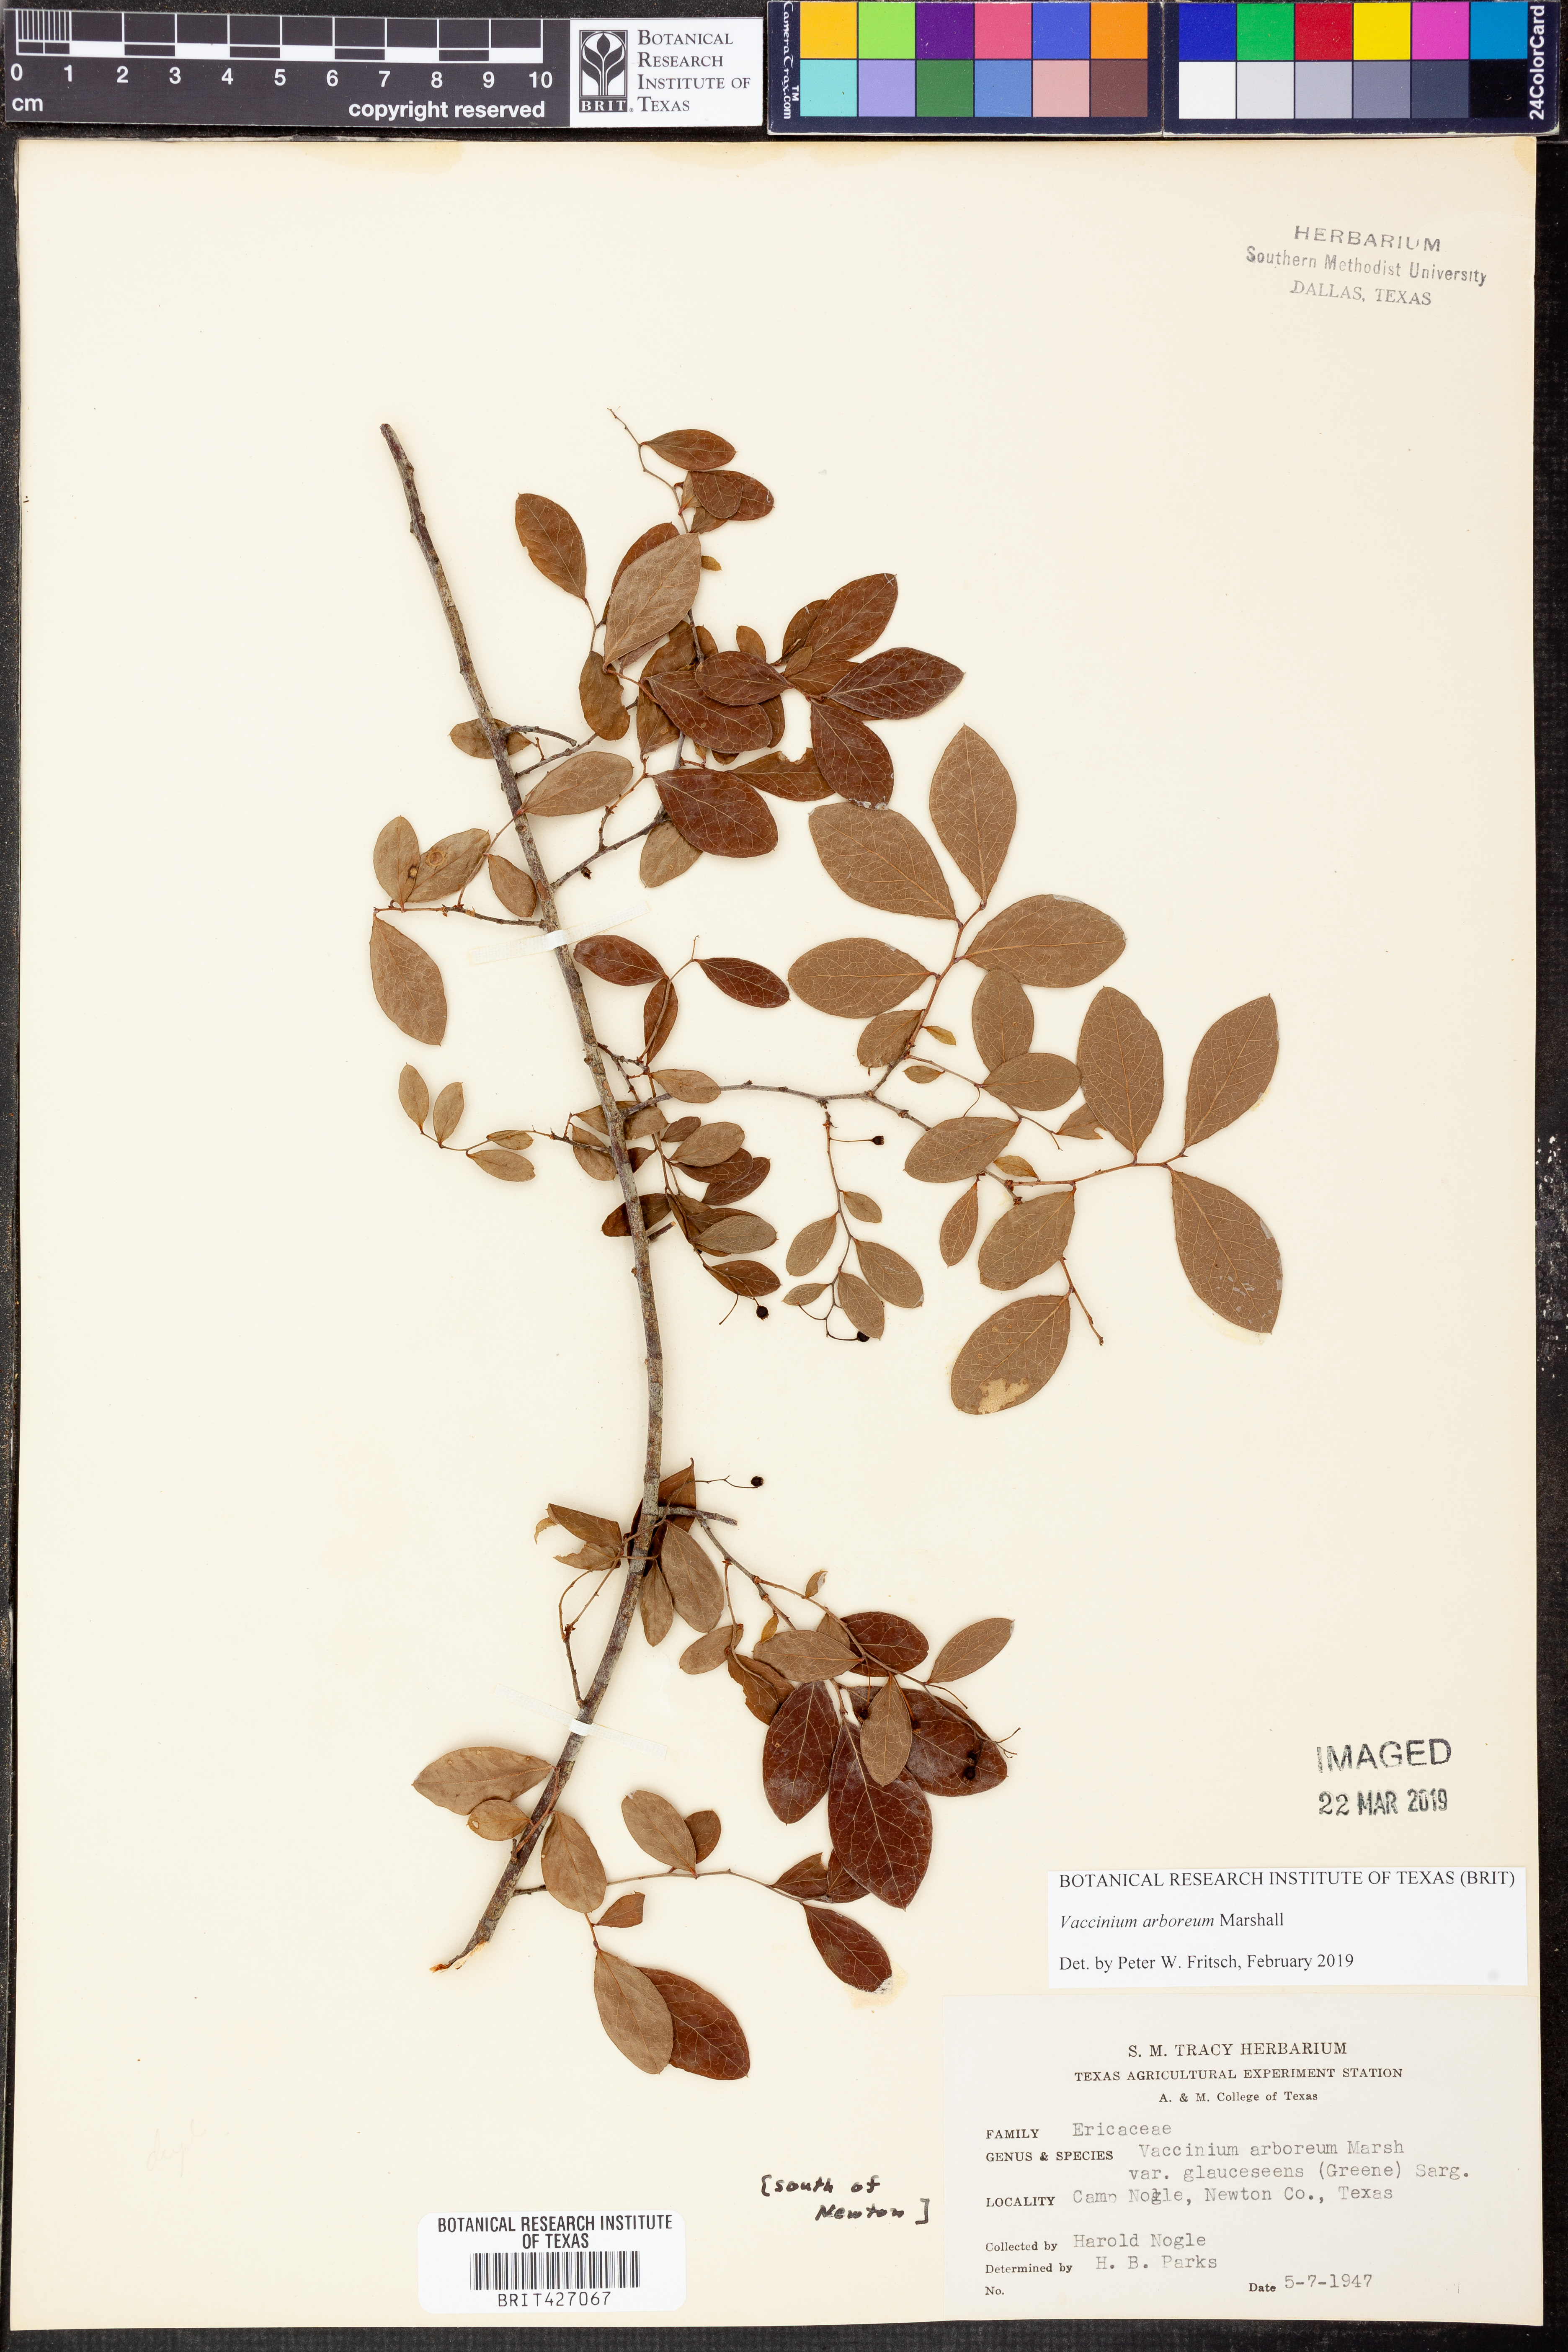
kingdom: Plantae
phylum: Tracheophyta
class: Magnoliopsida
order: Ericales
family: Ericaceae
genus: Vaccinium
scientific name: Vaccinium arboreum
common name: Farkleberry
